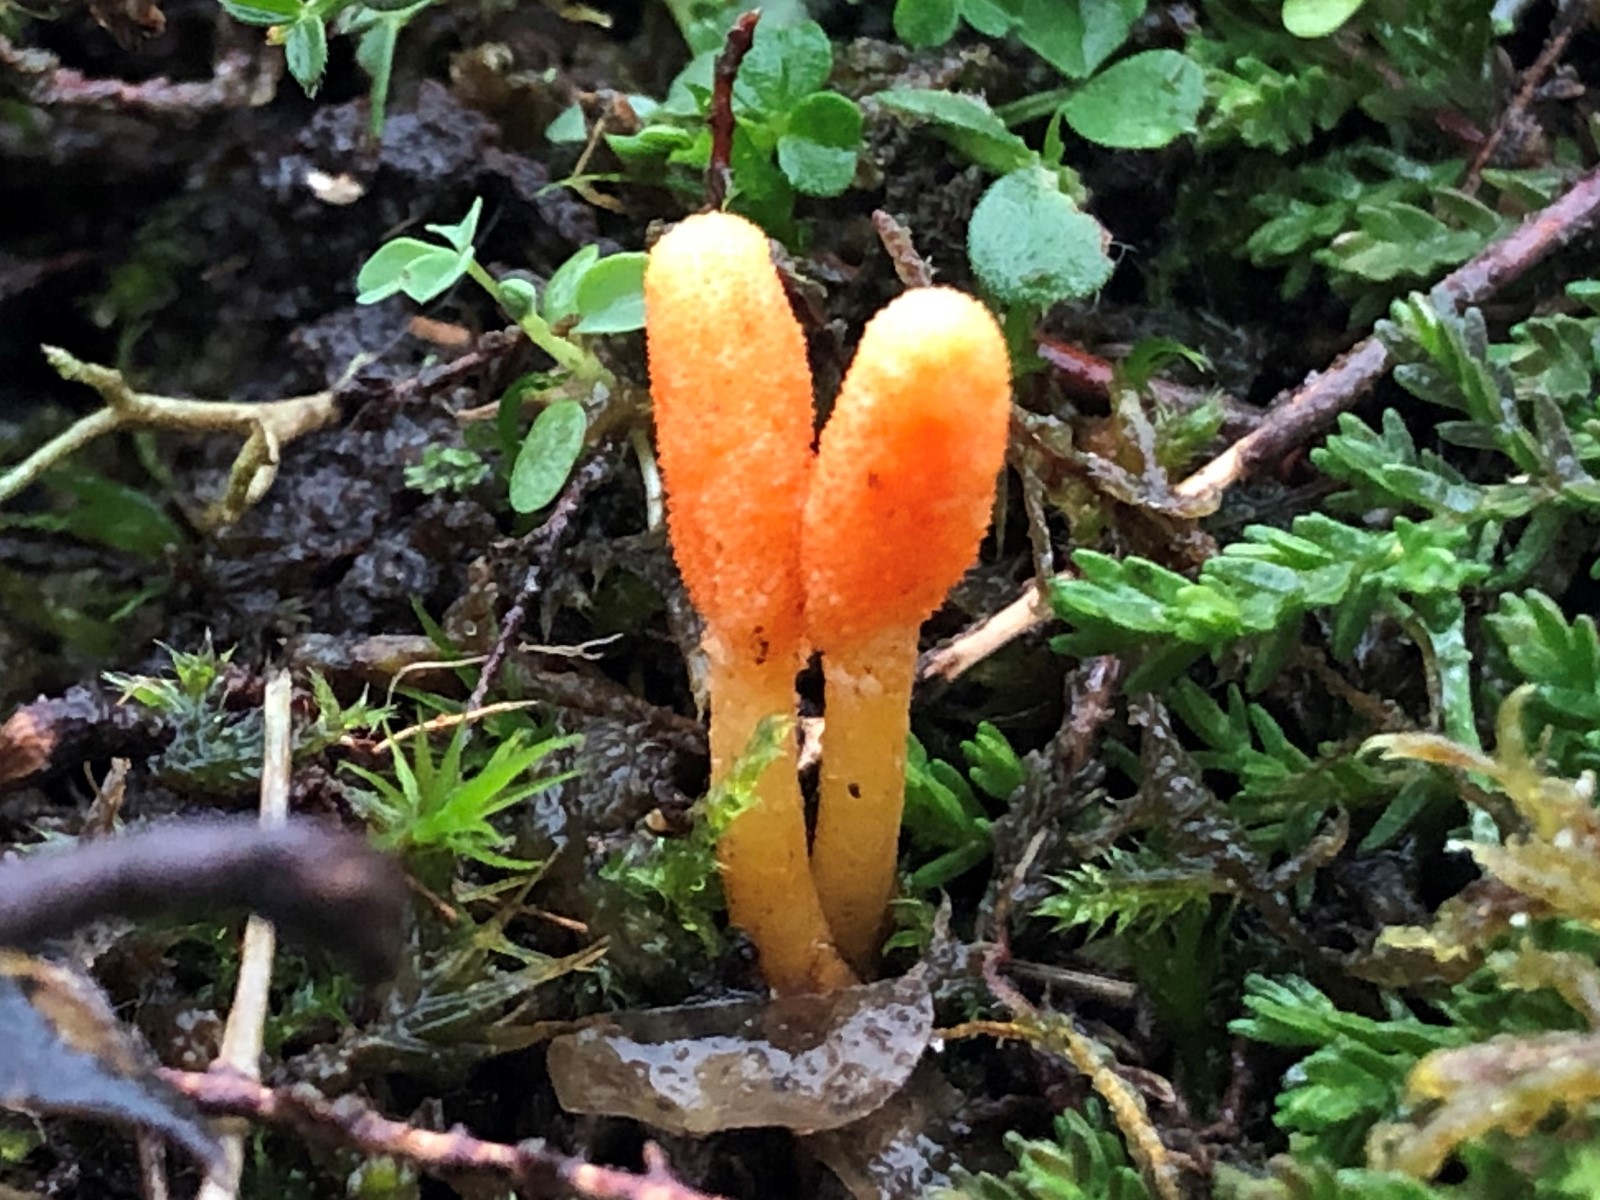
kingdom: Fungi
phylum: Ascomycota
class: Sordariomycetes
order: Hypocreales
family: Cordycipitaceae
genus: Cordyceps
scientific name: Cordyceps militaris
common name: puppe-snyltekølle
